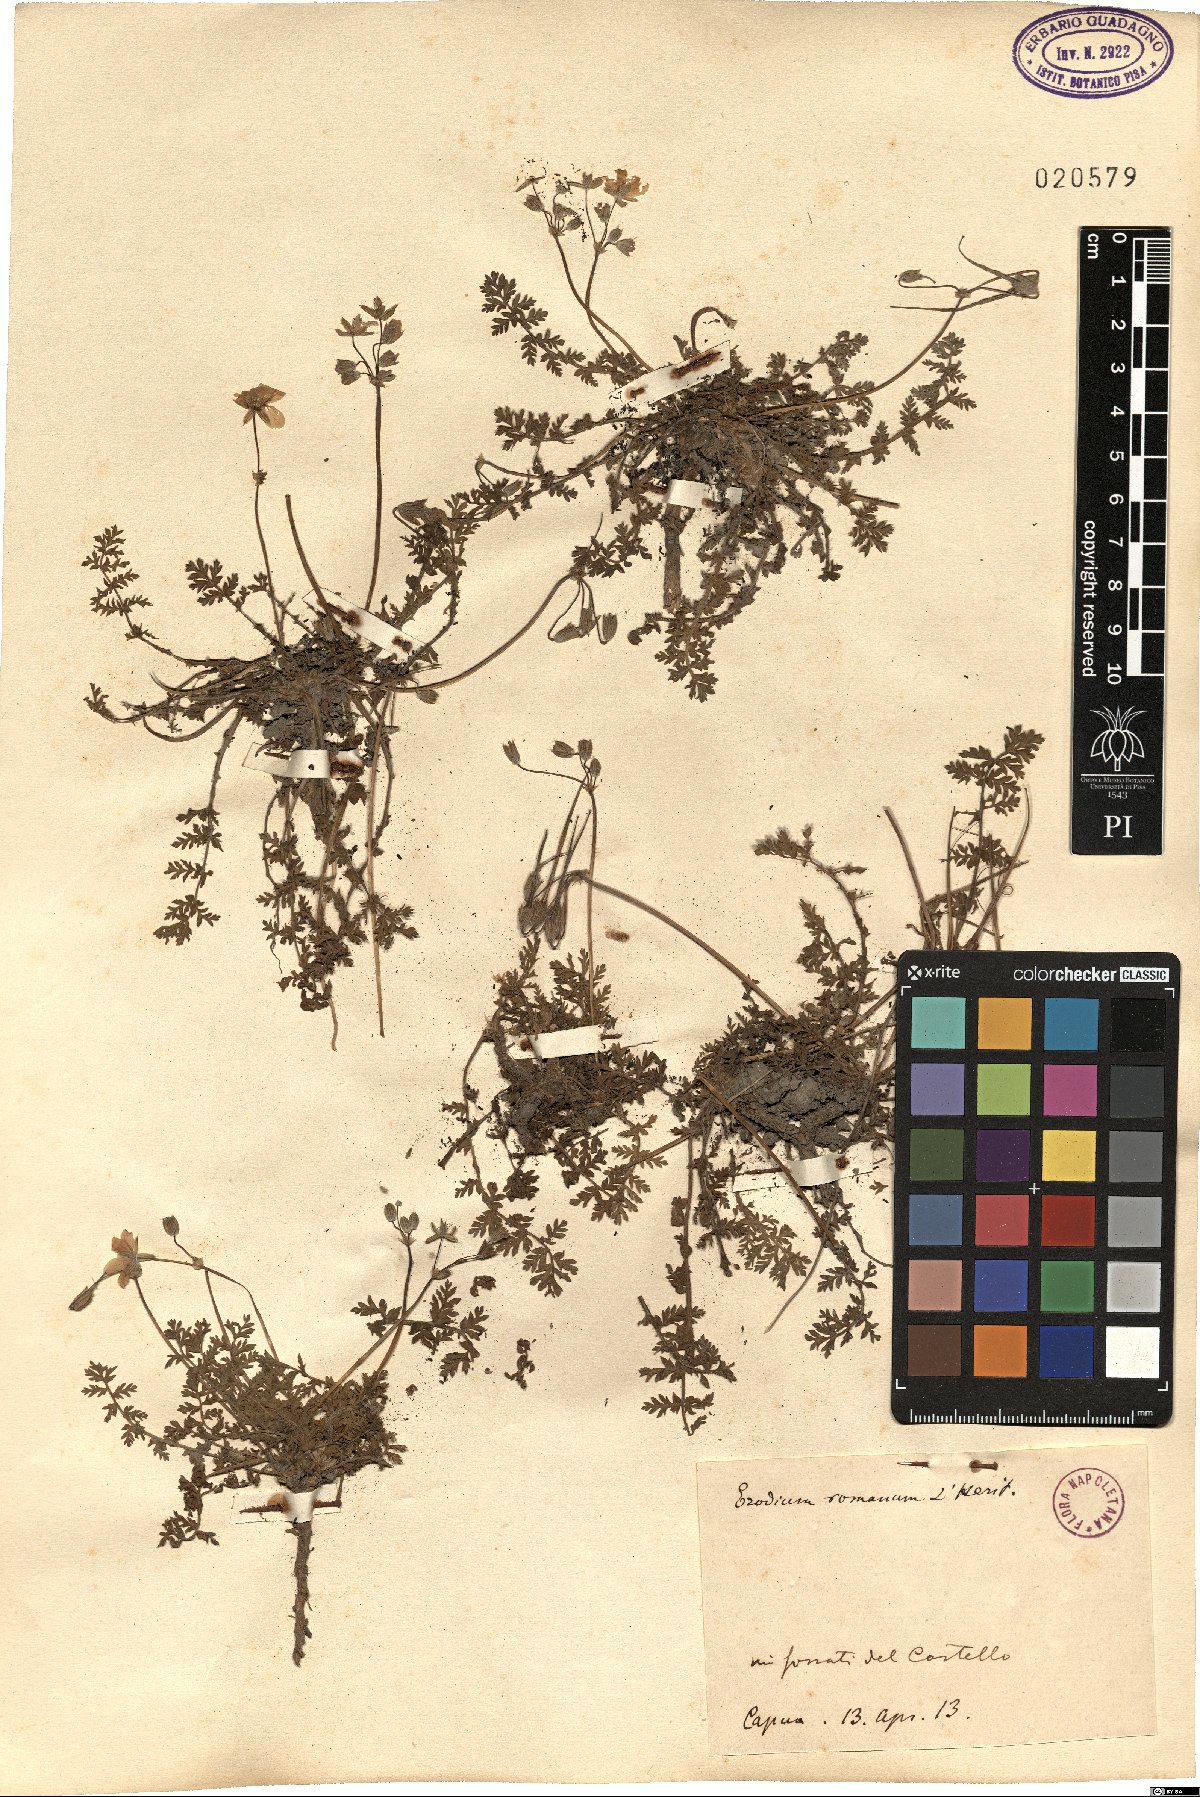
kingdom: Plantae
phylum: Tracheophyta
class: Magnoliopsida
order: Geraniales
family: Geraniaceae
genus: Erodium
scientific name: Erodium acaule
